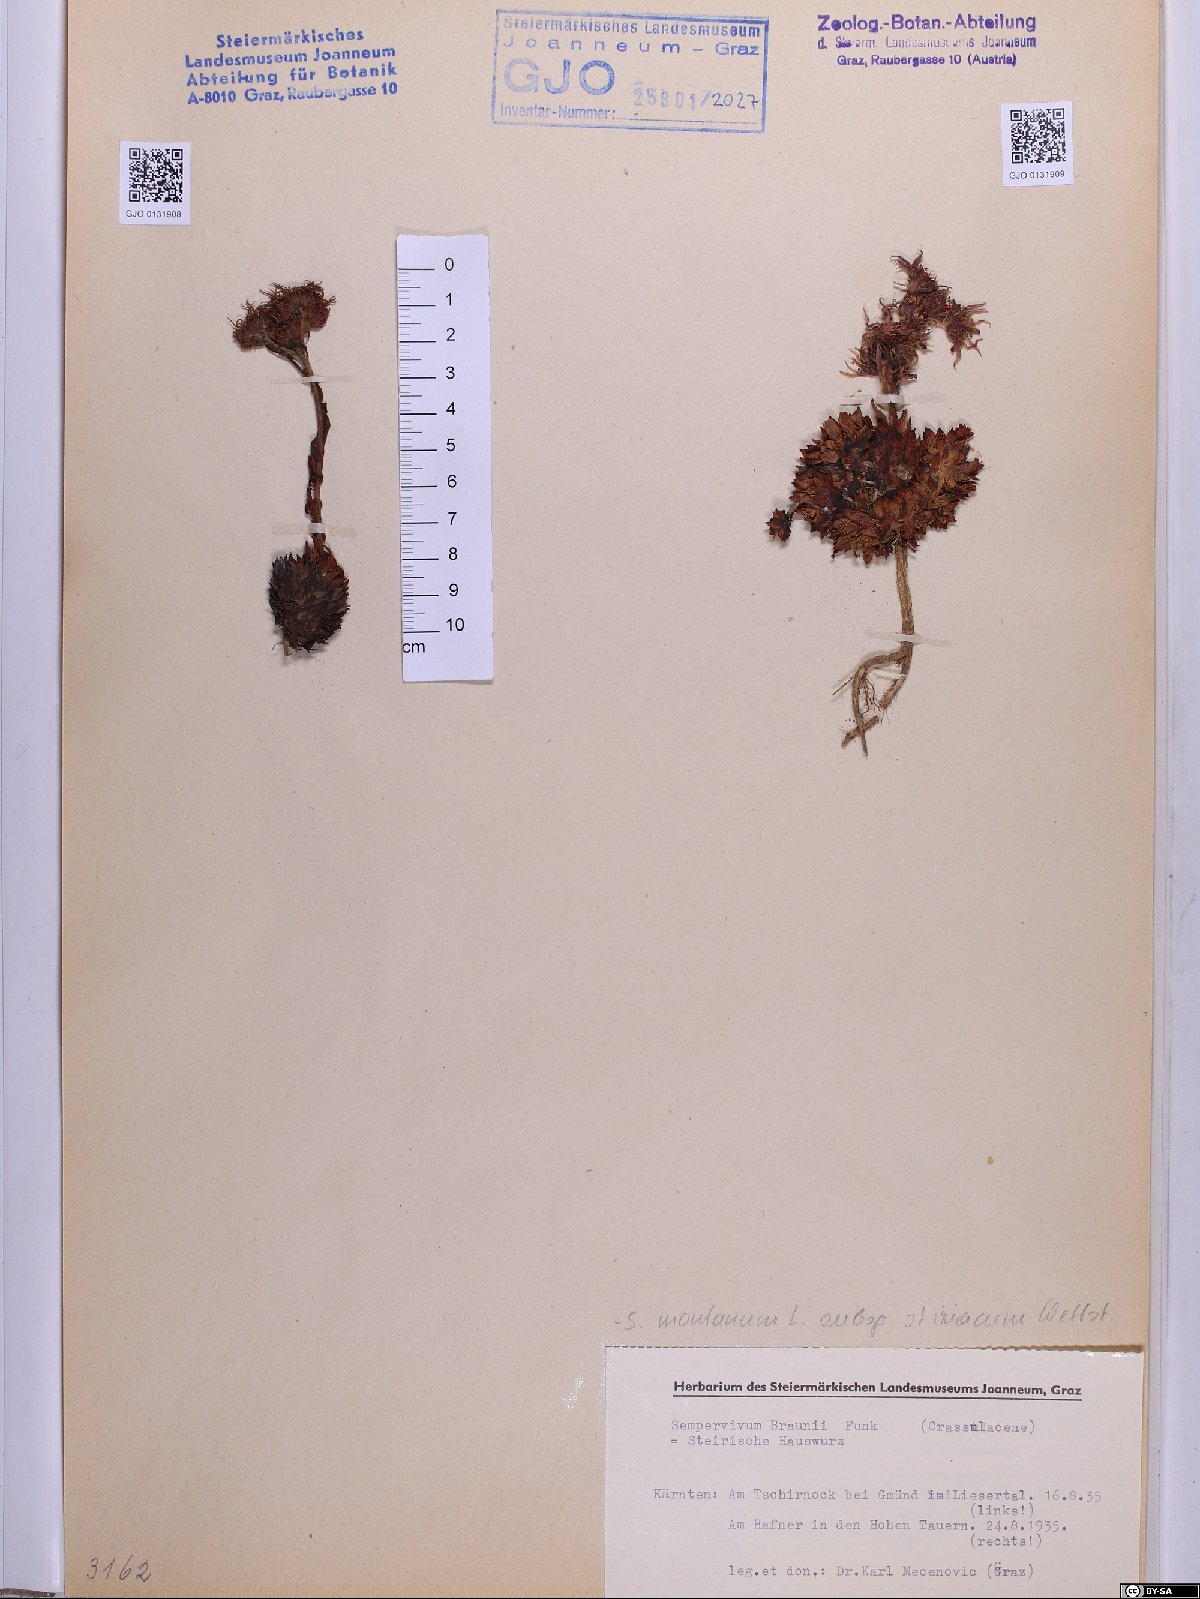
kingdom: Plantae
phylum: Tracheophyta
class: Magnoliopsida
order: Saxifragales
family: Crassulaceae
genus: Sempervivum
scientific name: Sempervivum montanum
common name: Mountain house-leek
